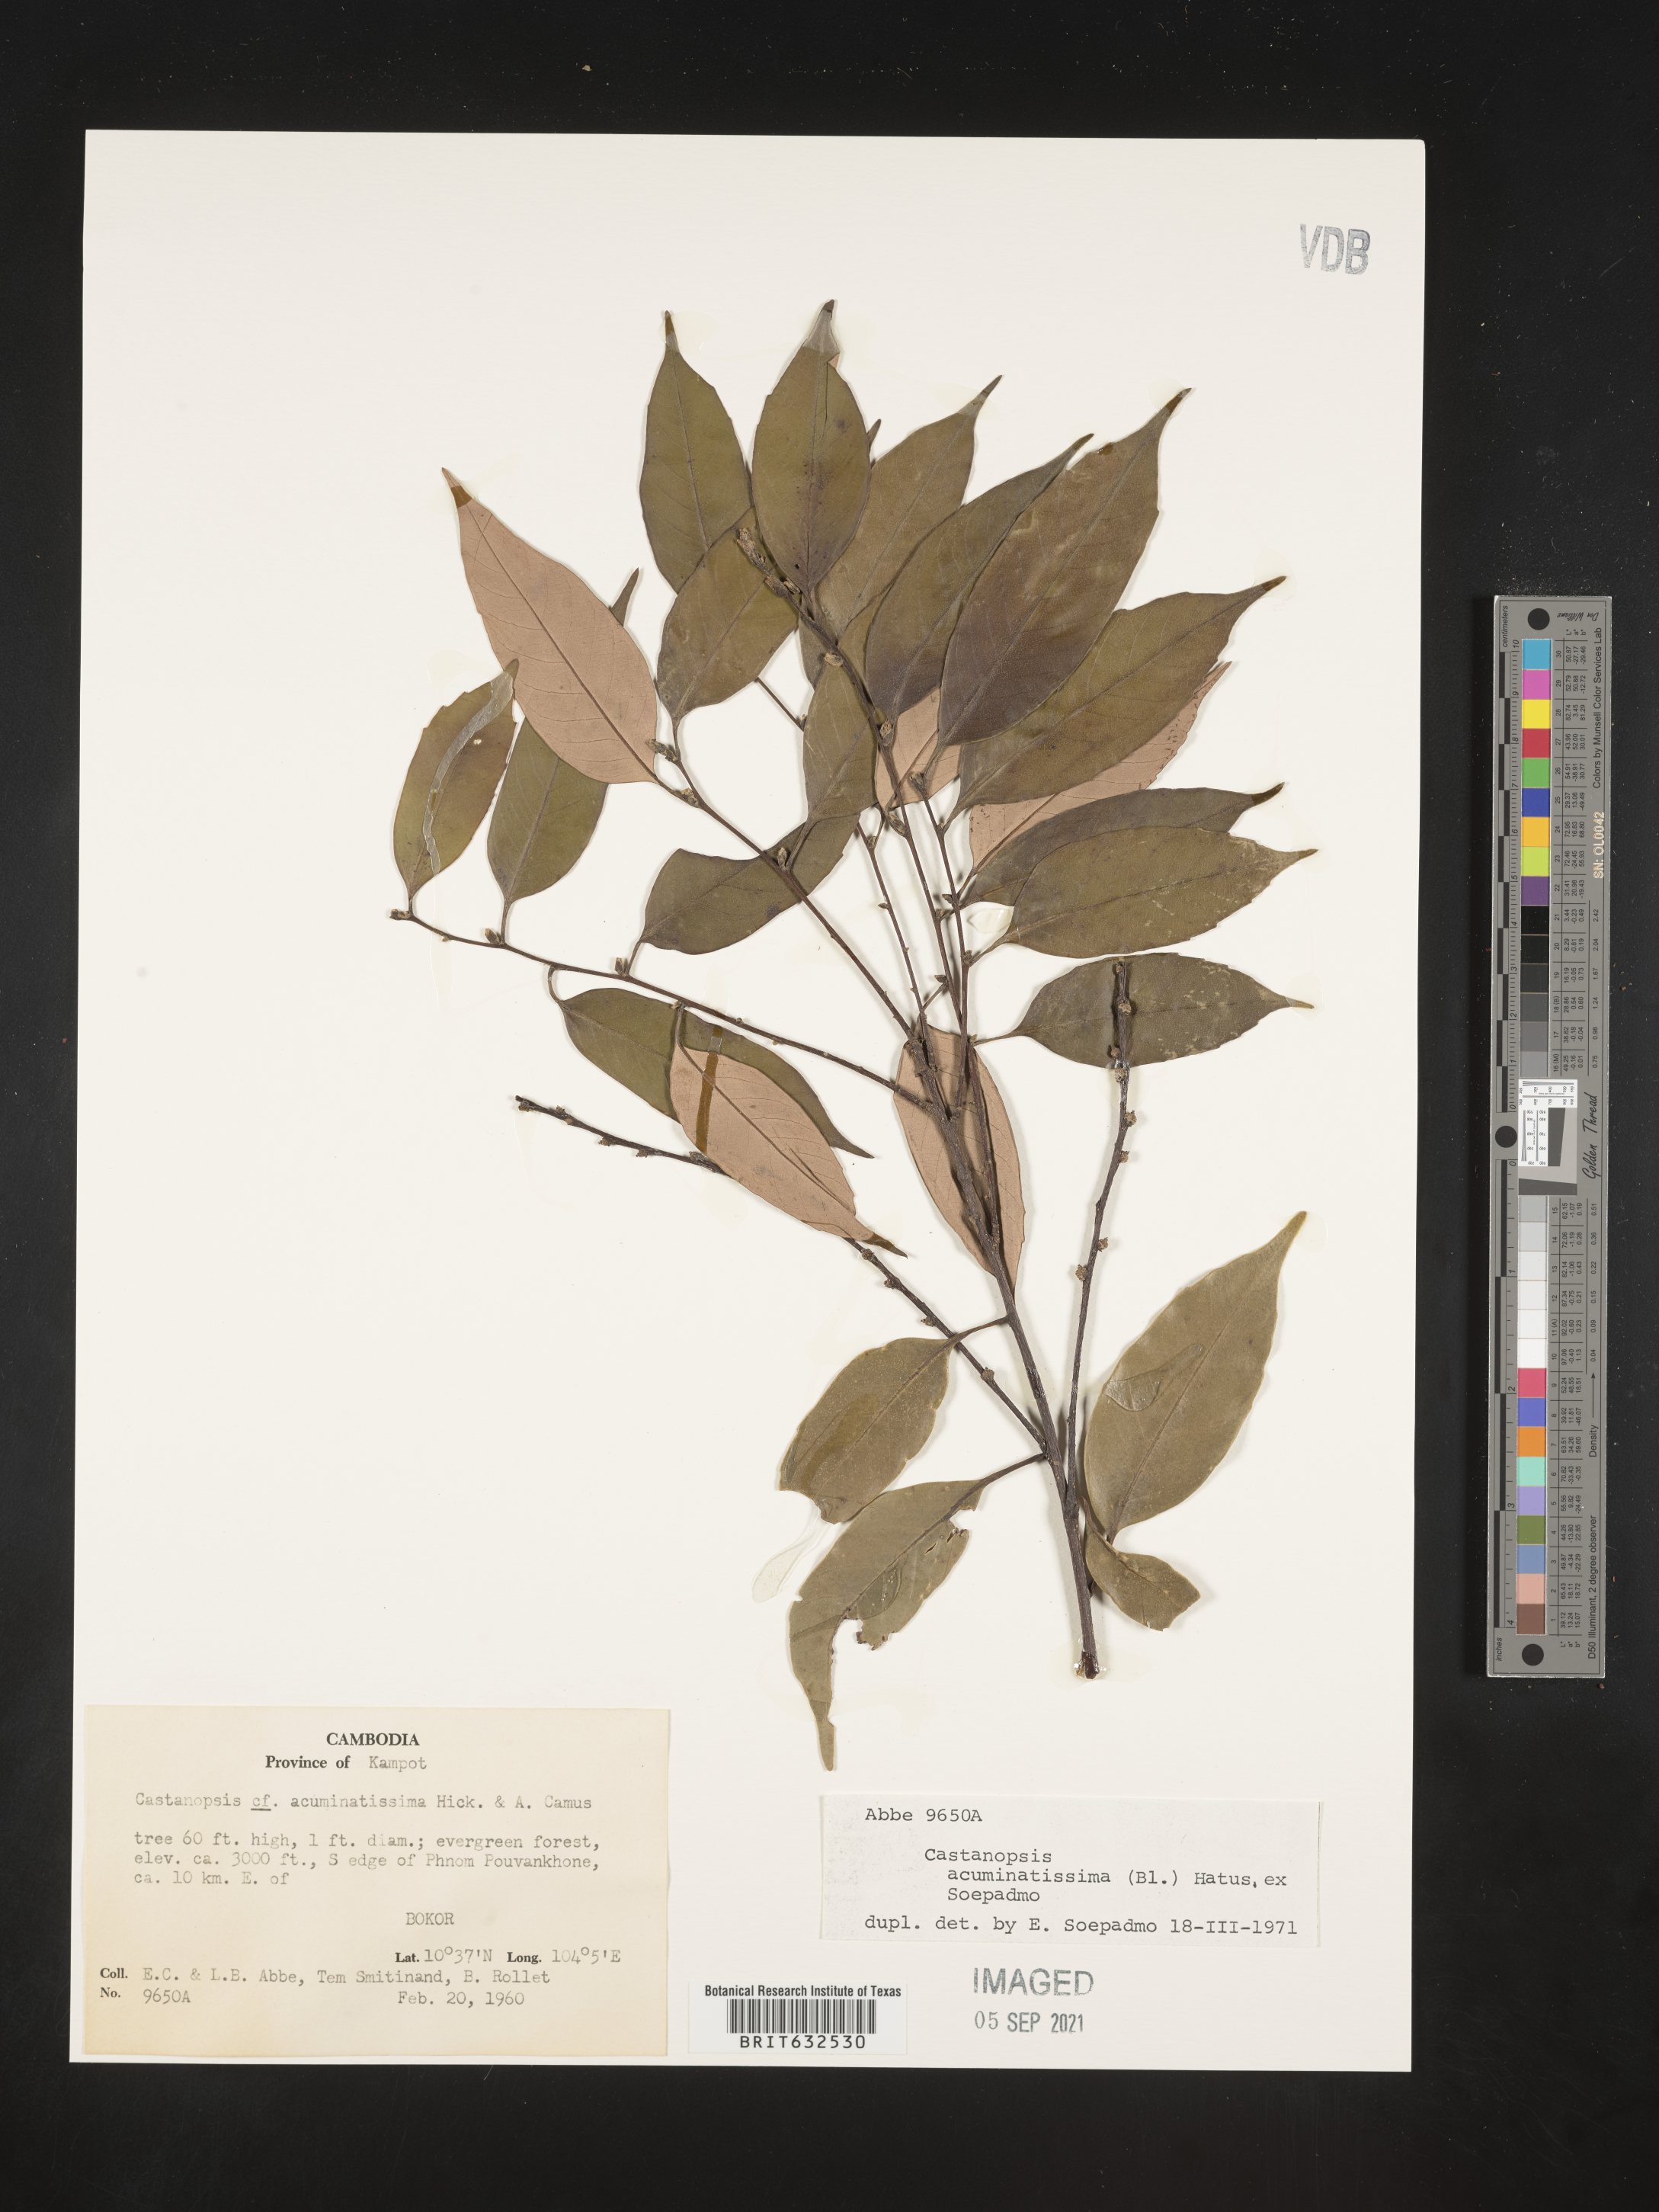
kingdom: Plantae
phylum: Tracheophyta
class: Magnoliopsida
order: Fagales
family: Fagaceae
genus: Castanopsis
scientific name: Castanopsis
